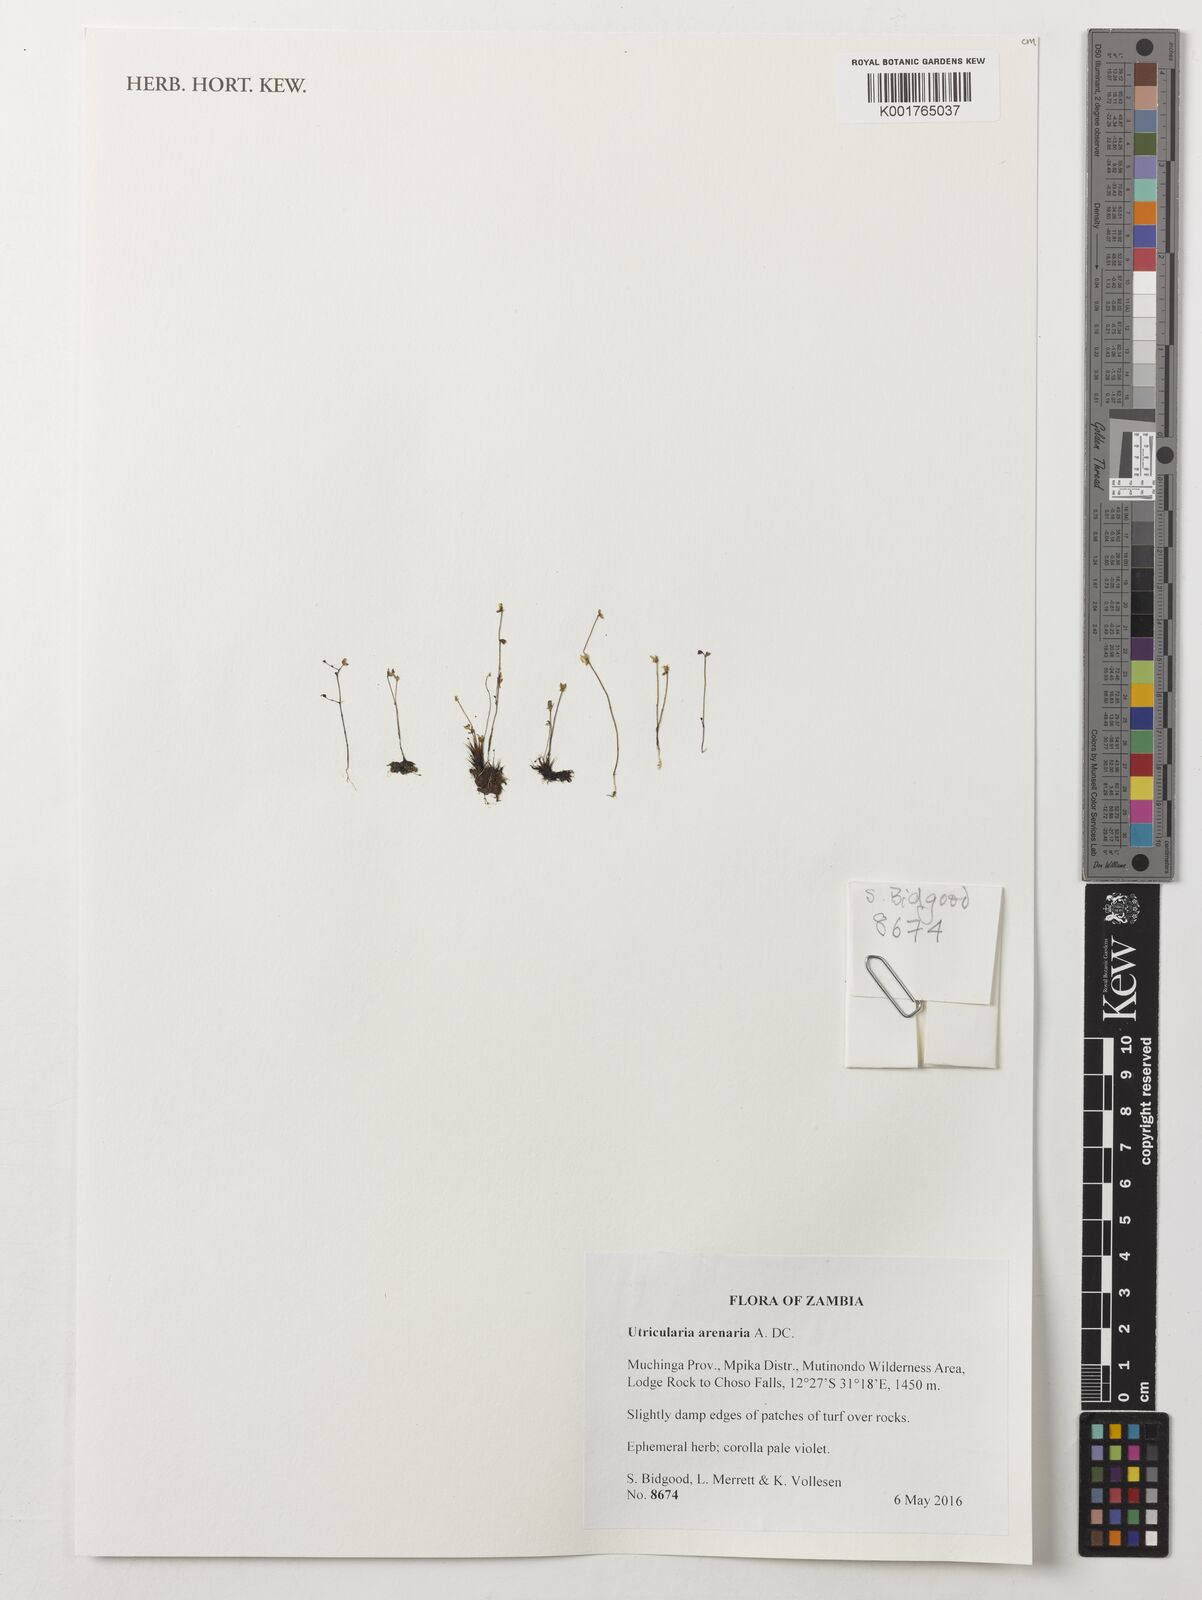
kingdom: Plantae
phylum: Tracheophyta
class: Magnoliopsida
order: Lamiales
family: Lentibulariaceae
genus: Utricularia
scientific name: Utricularia arenaria
